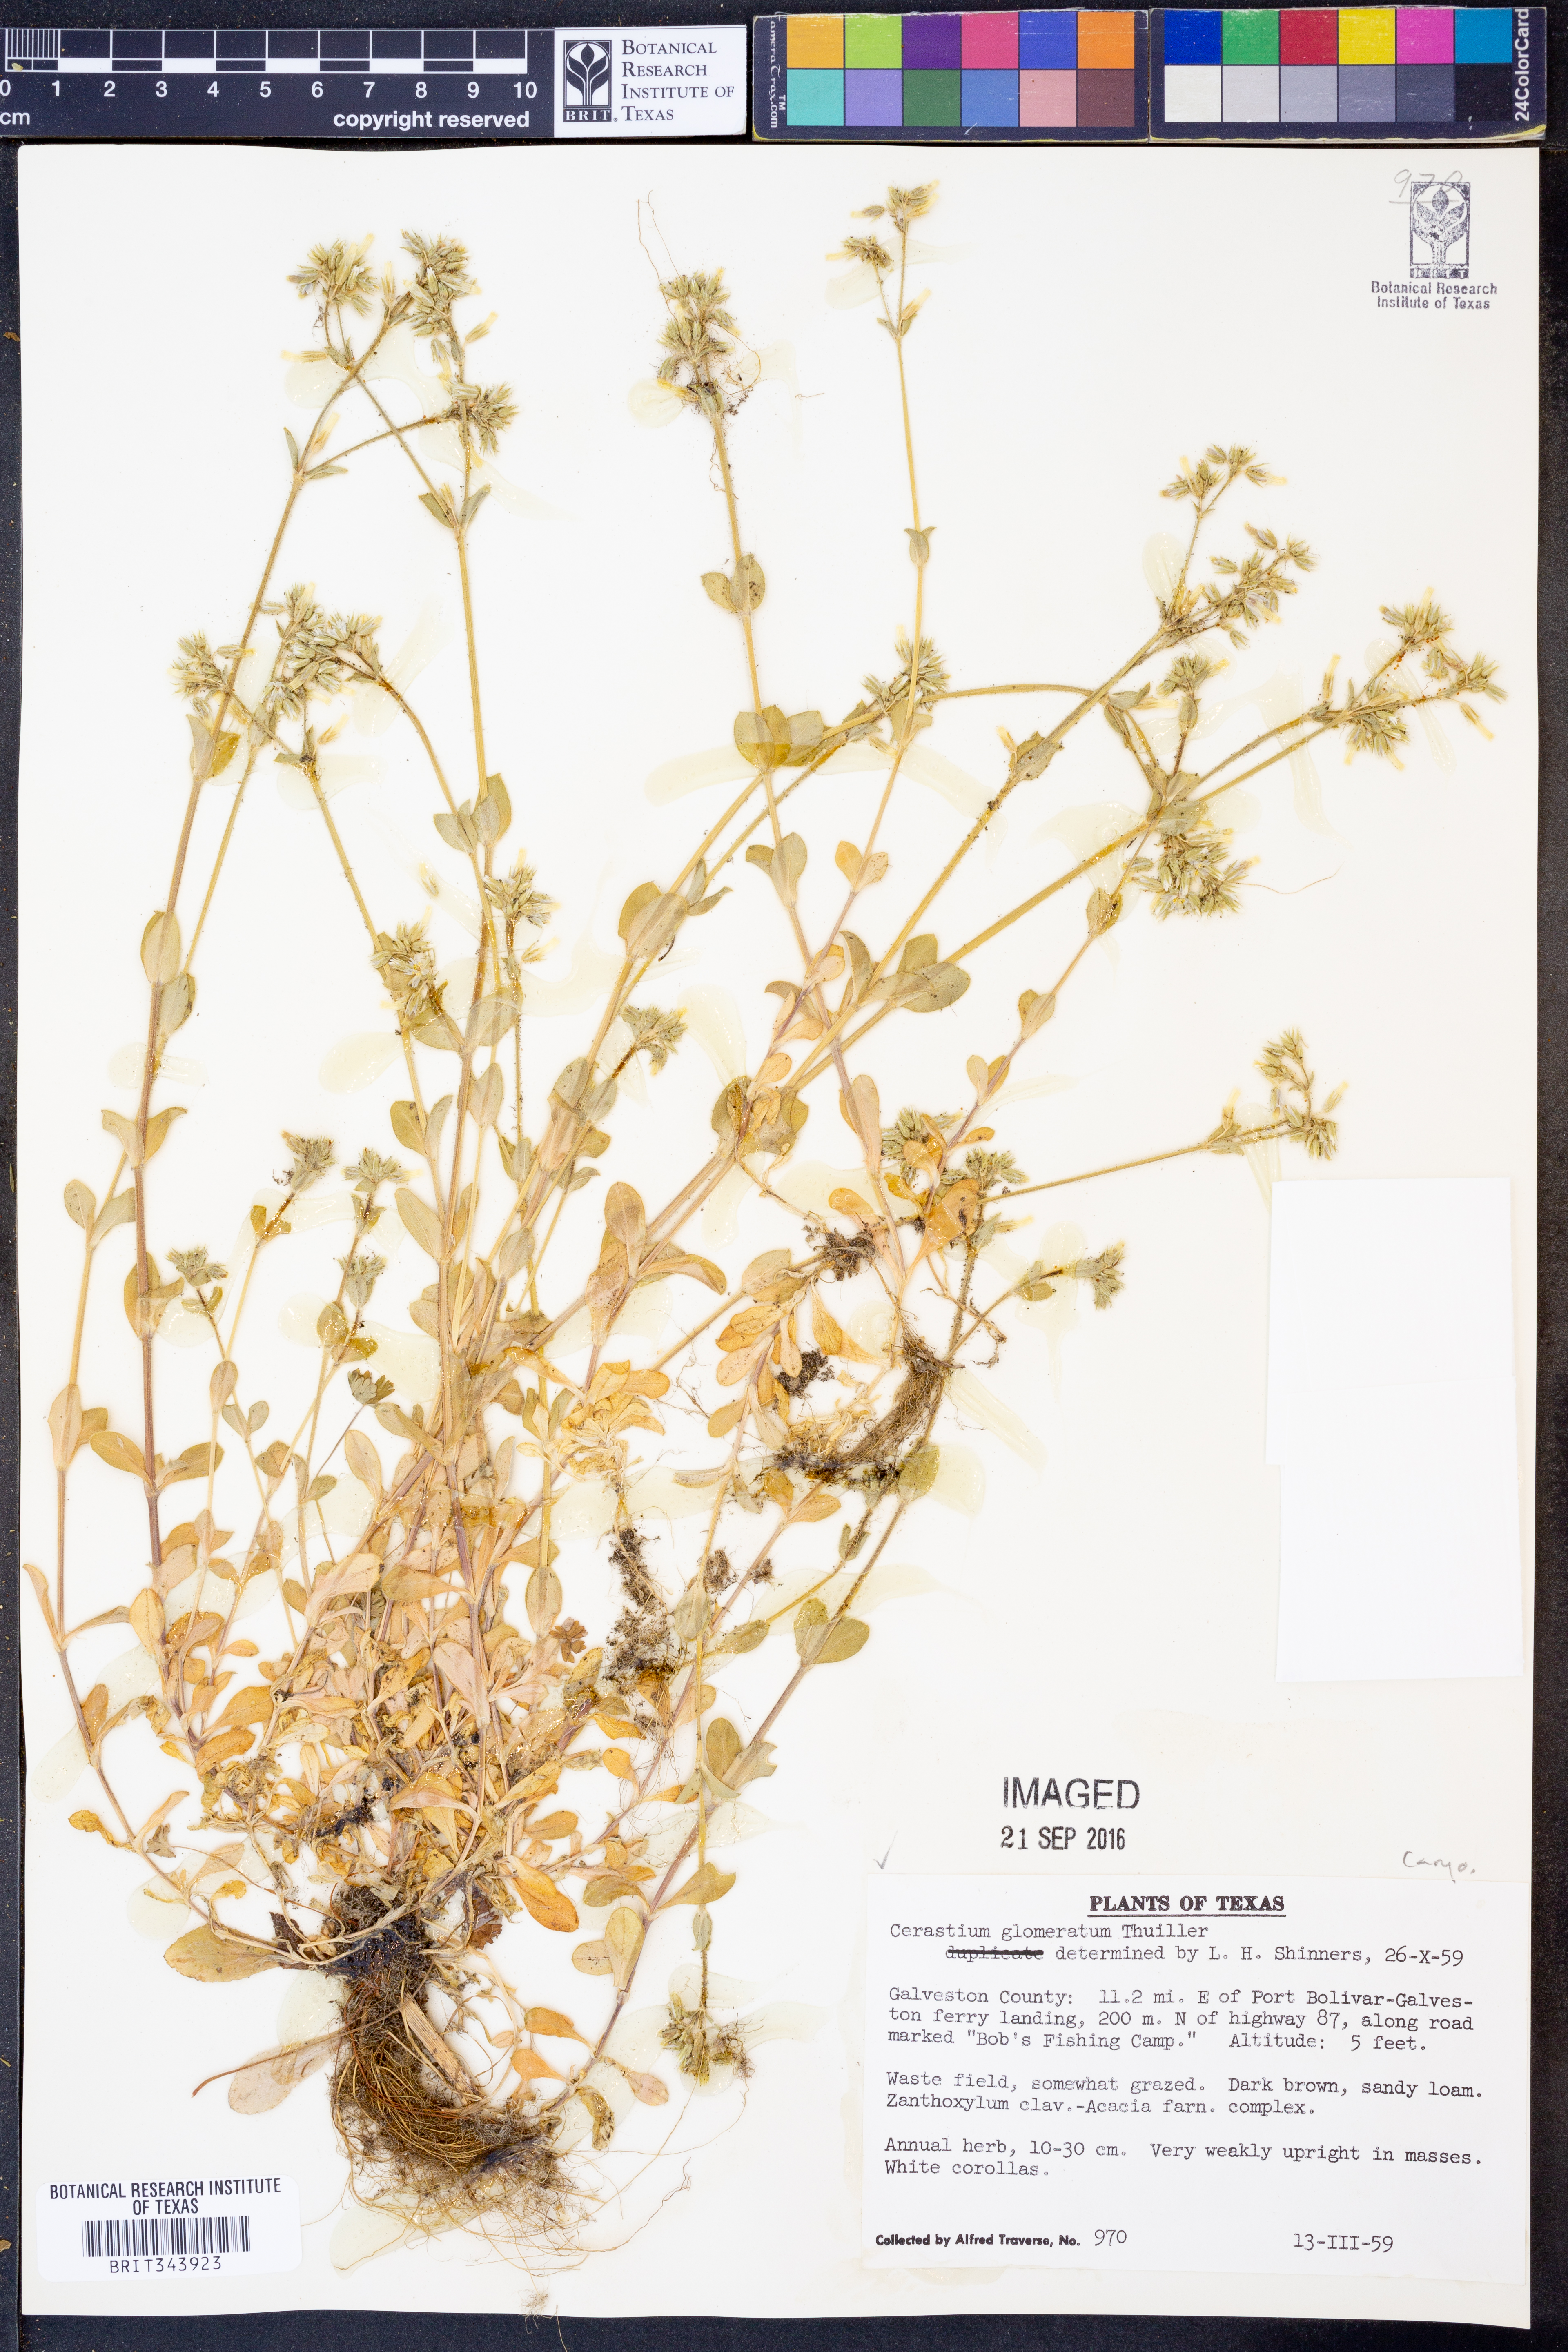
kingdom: Plantae
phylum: Tracheophyta
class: Magnoliopsida
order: Caryophyllales
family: Caryophyllaceae
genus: Cerastium
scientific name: Cerastium glomeratum
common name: Sticky chickweed
